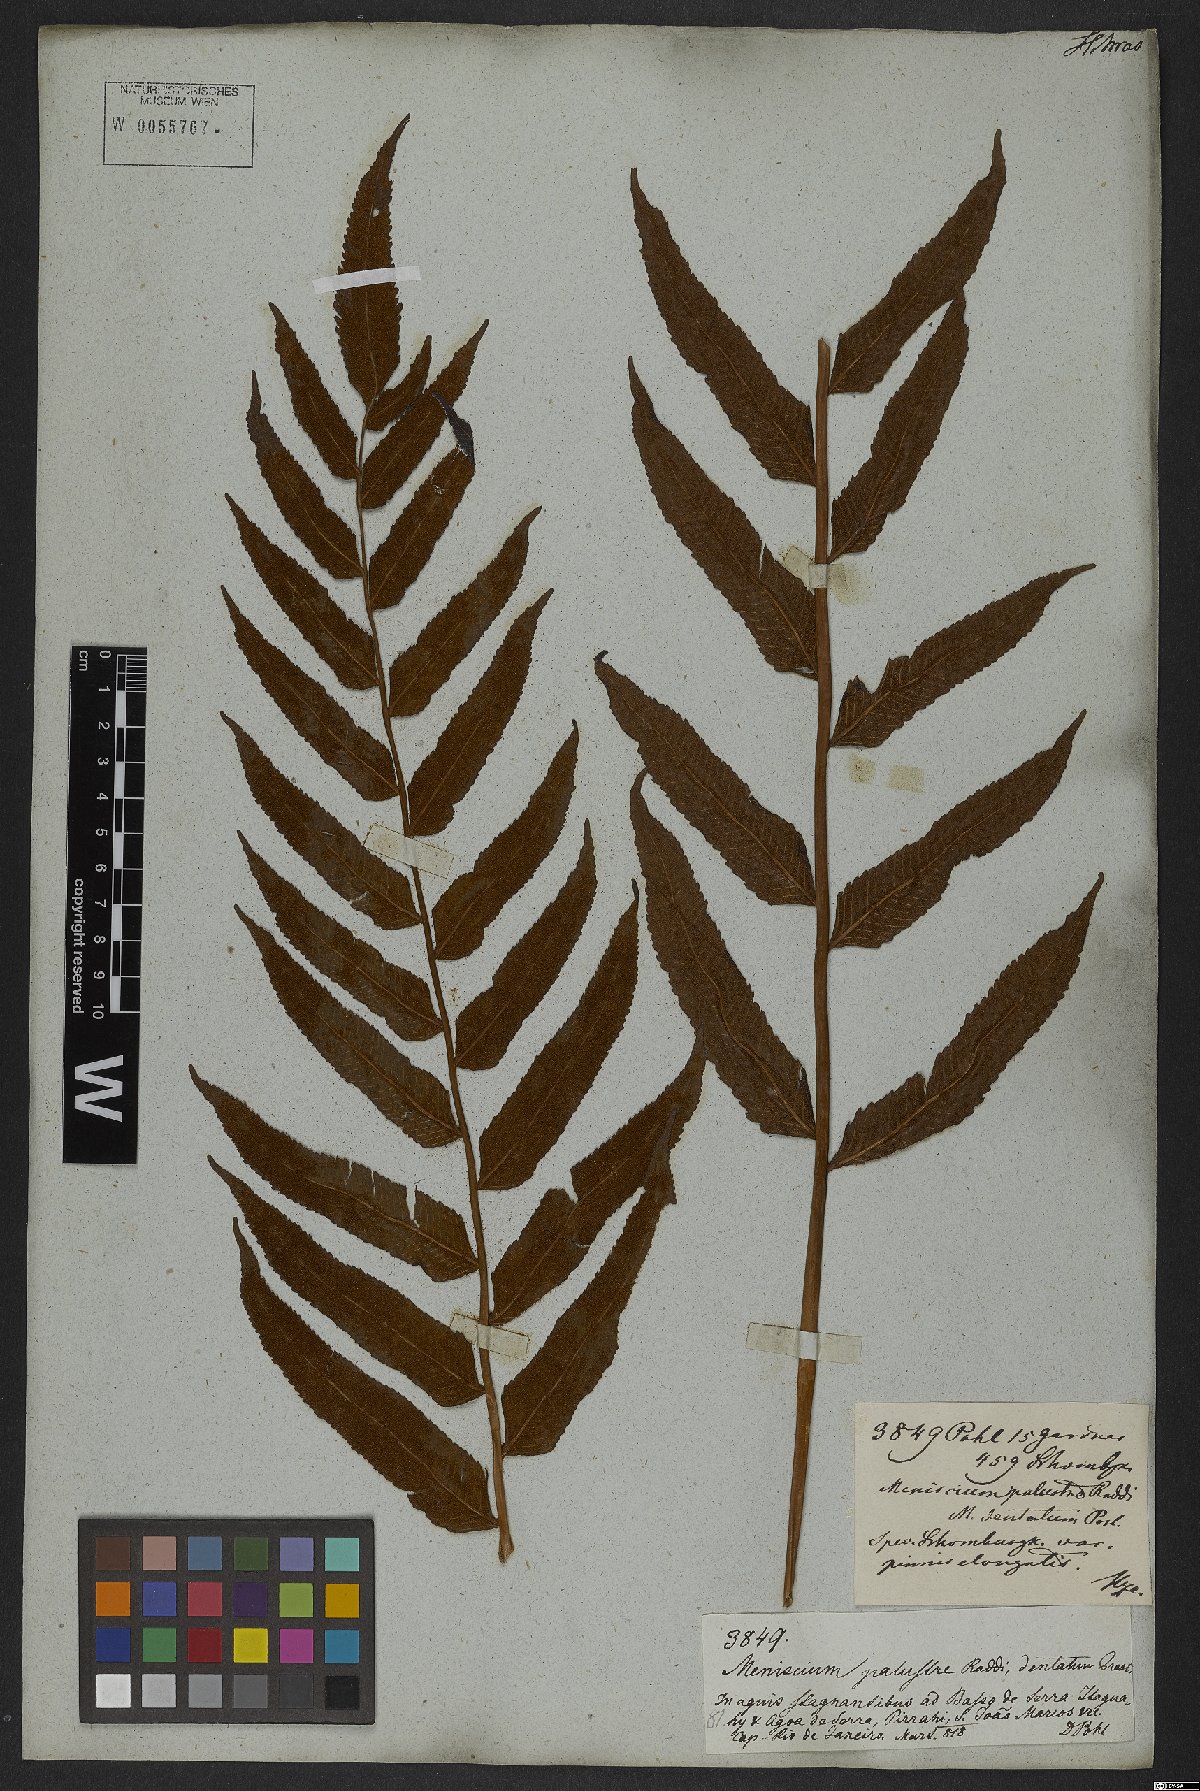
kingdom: Plantae
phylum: Tracheophyta
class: Polypodiopsida
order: Polypodiales
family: Thelypteridaceae
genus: Meniscium
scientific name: Meniscium serratum
